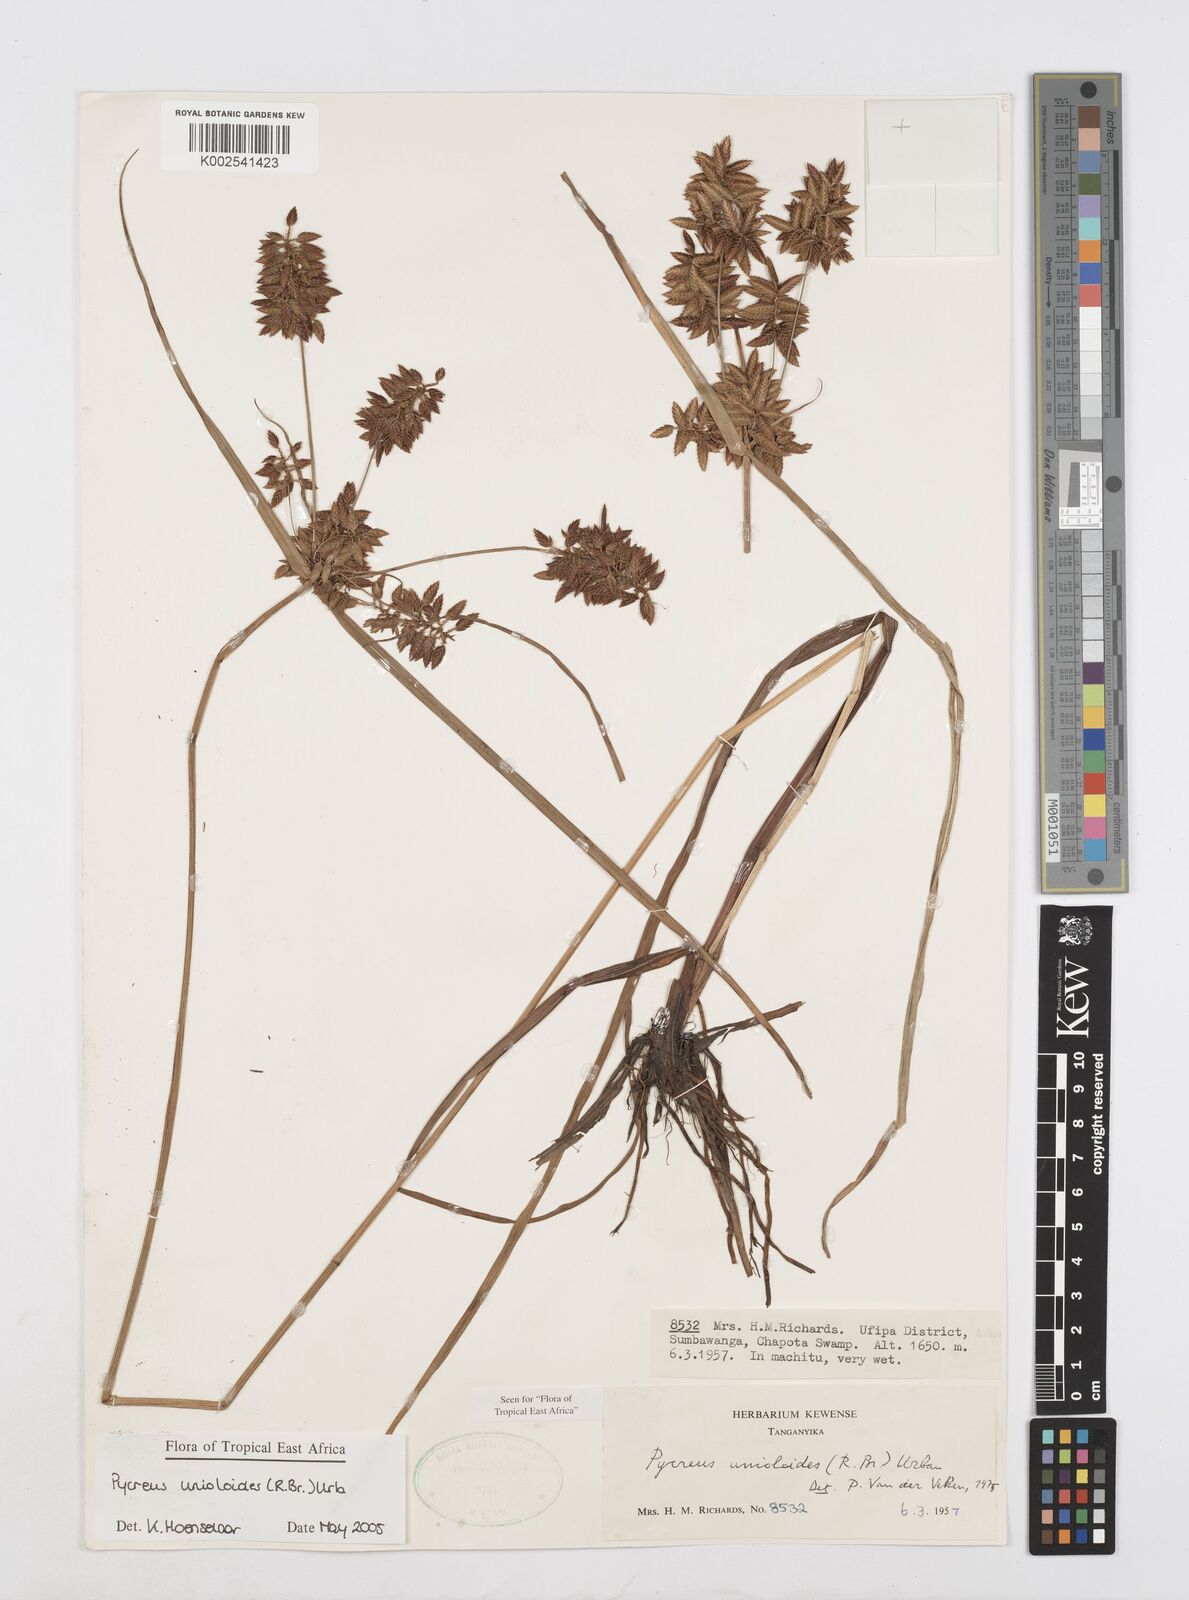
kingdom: Plantae
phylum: Tracheophyta
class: Liliopsida
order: Poales
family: Cyperaceae
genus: Cyperus
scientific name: Cyperus unioloides
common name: Uniola flatsedge
